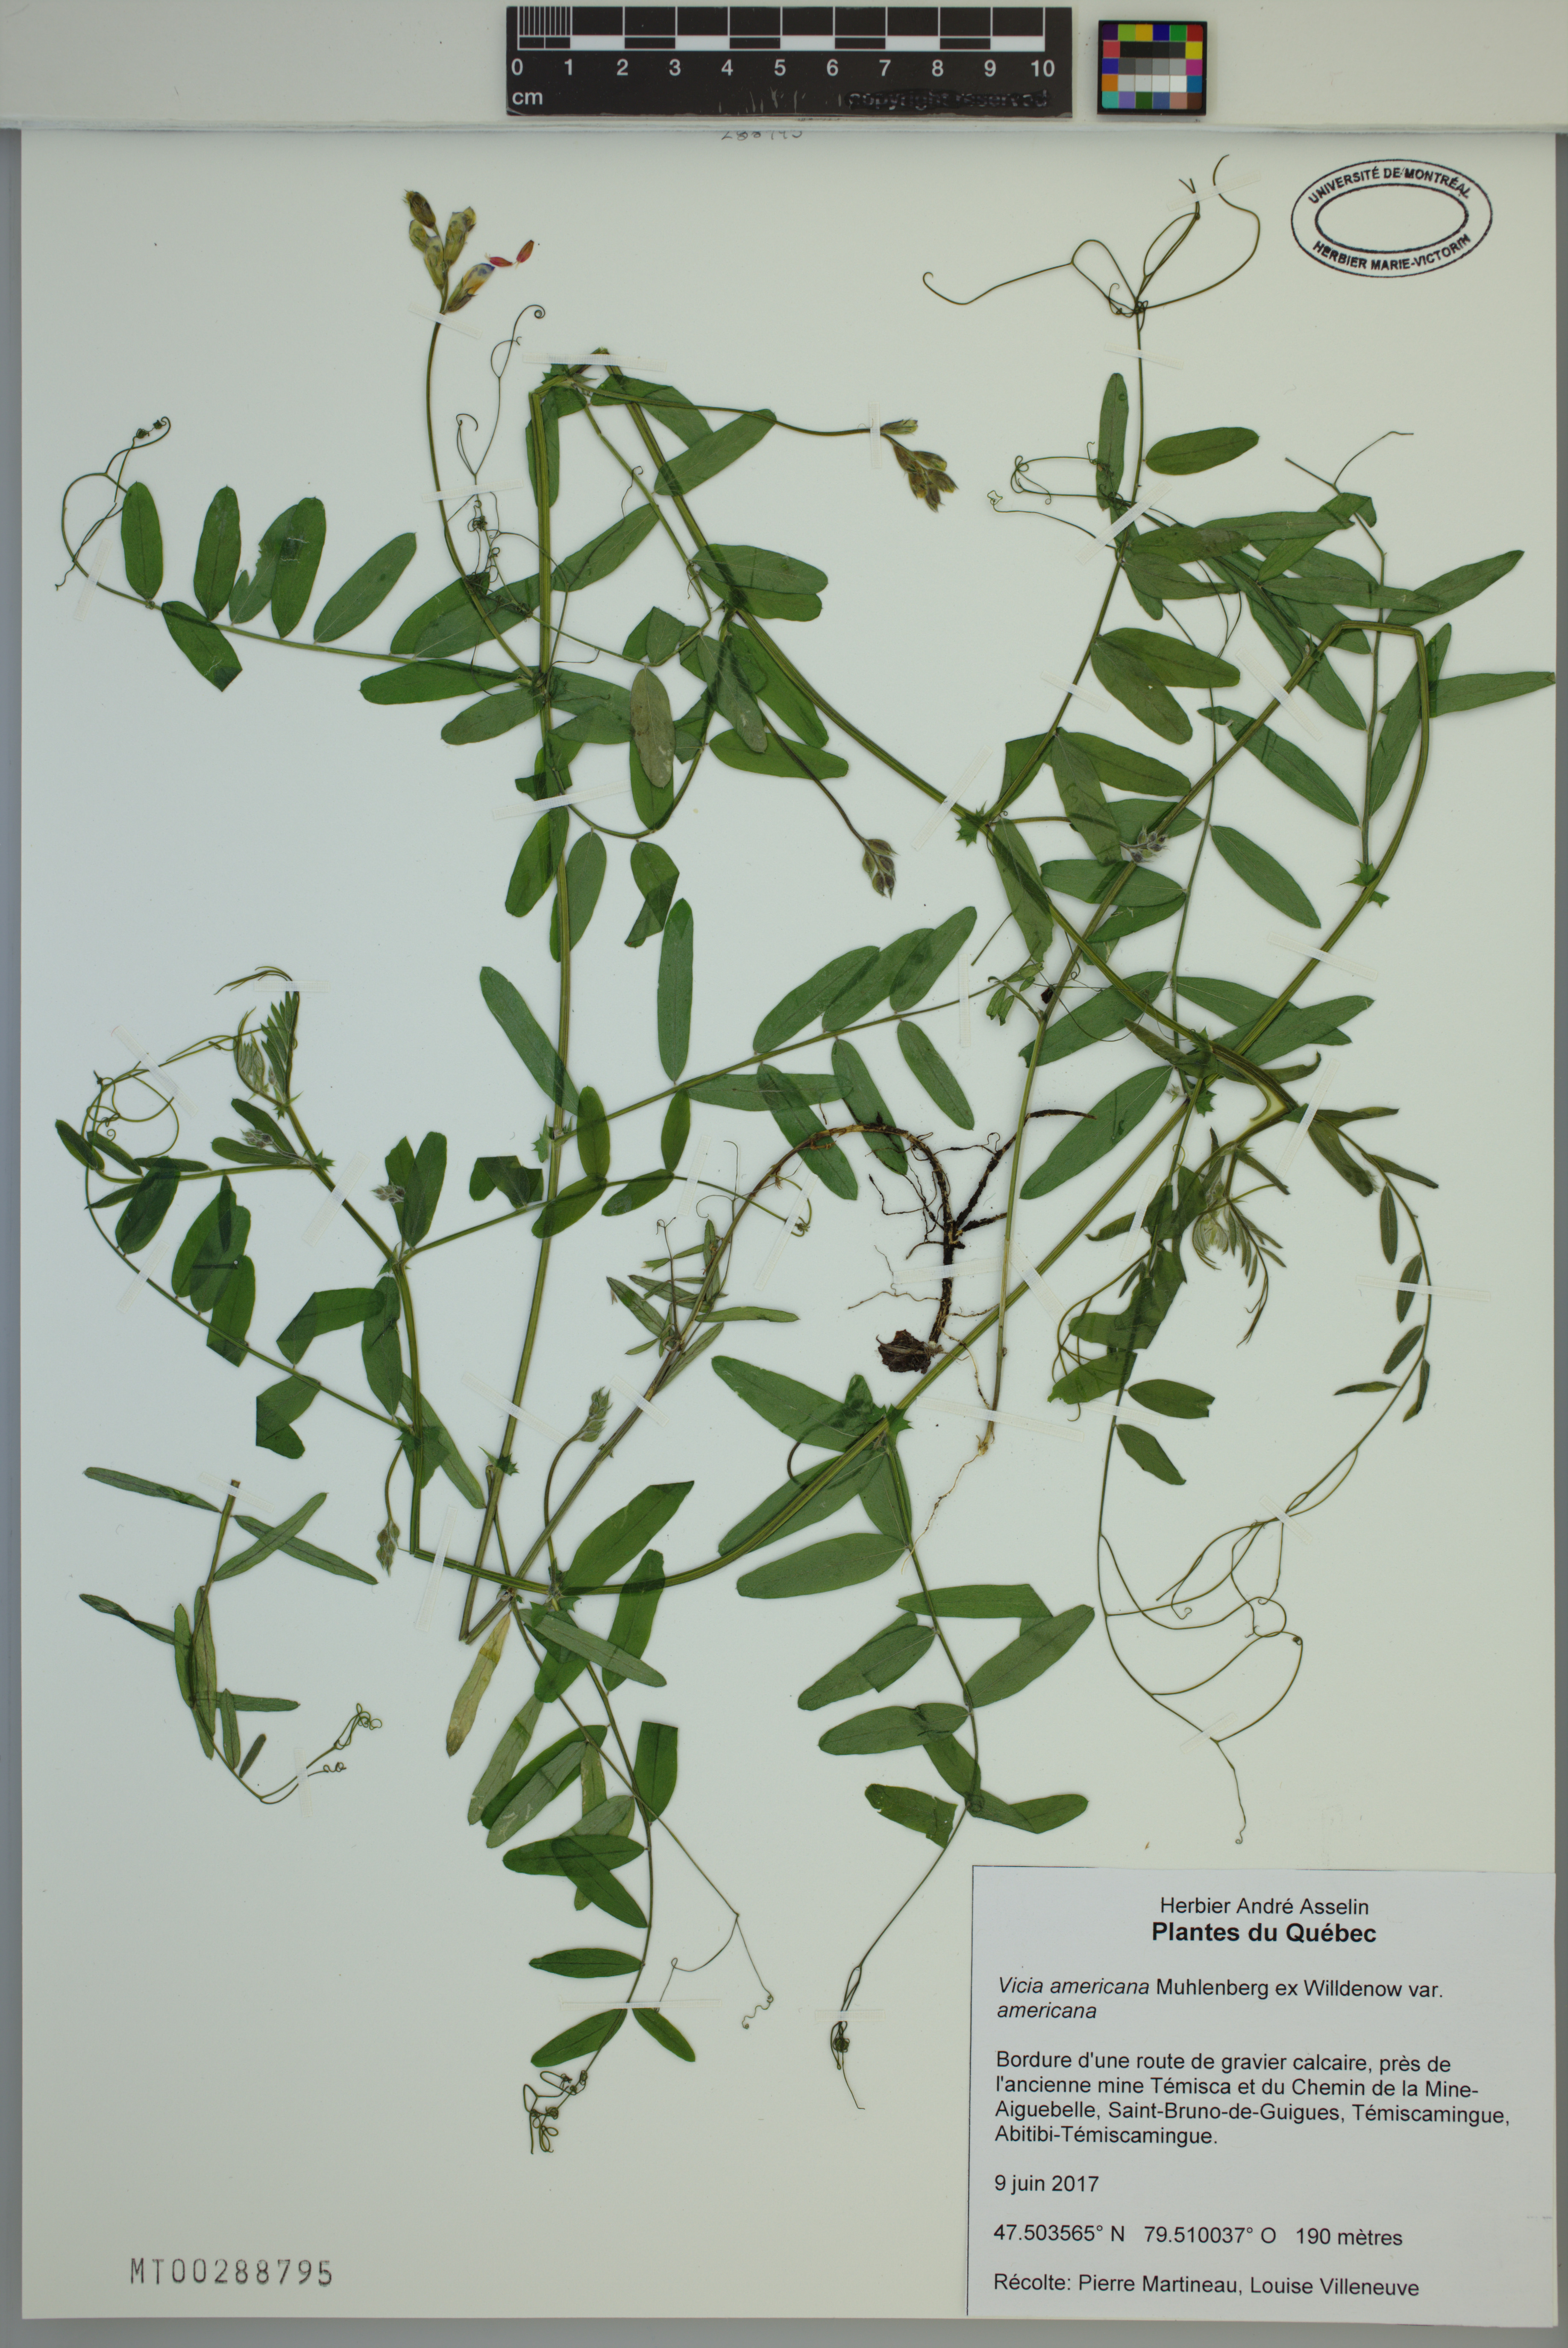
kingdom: Plantae
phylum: Tracheophyta
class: Magnoliopsida
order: Fabales
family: Fabaceae
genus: Vicia
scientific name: Vicia americana
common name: American vetch
